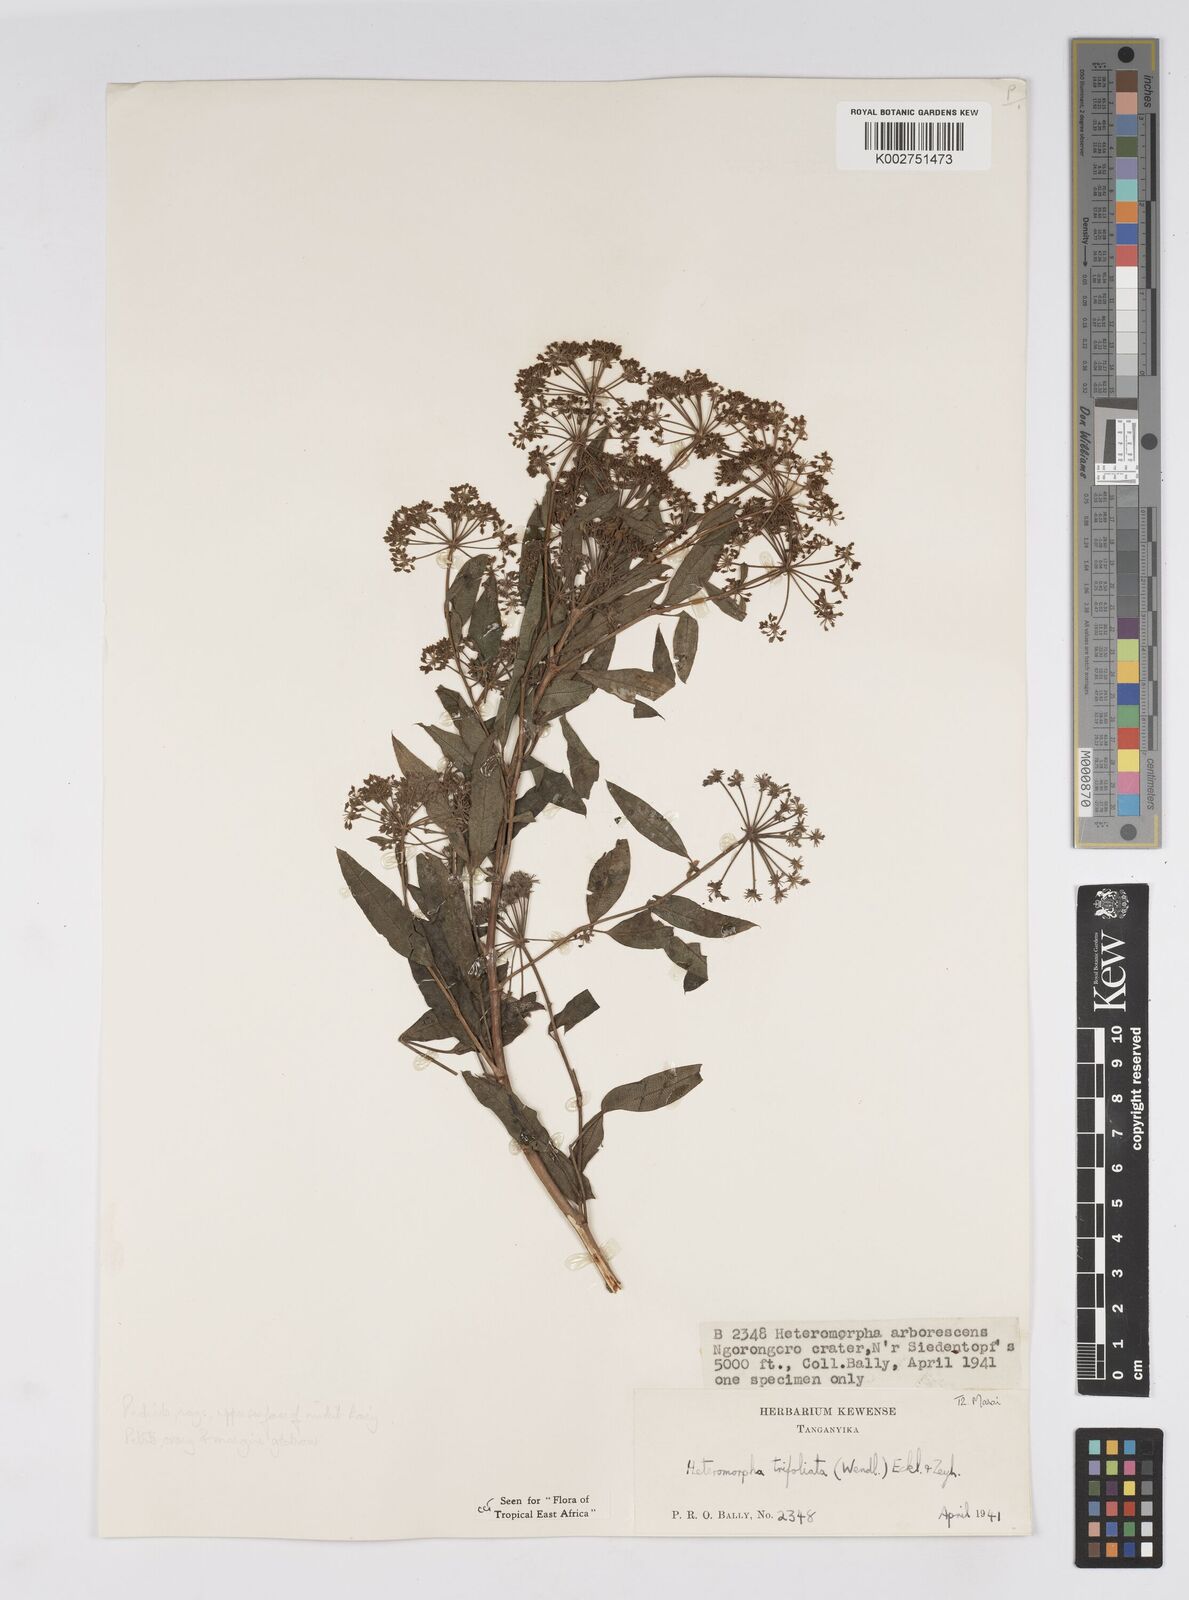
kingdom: Plantae
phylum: Tracheophyta
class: Magnoliopsida
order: Apiales
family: Apiaceae
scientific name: Apiaceae
